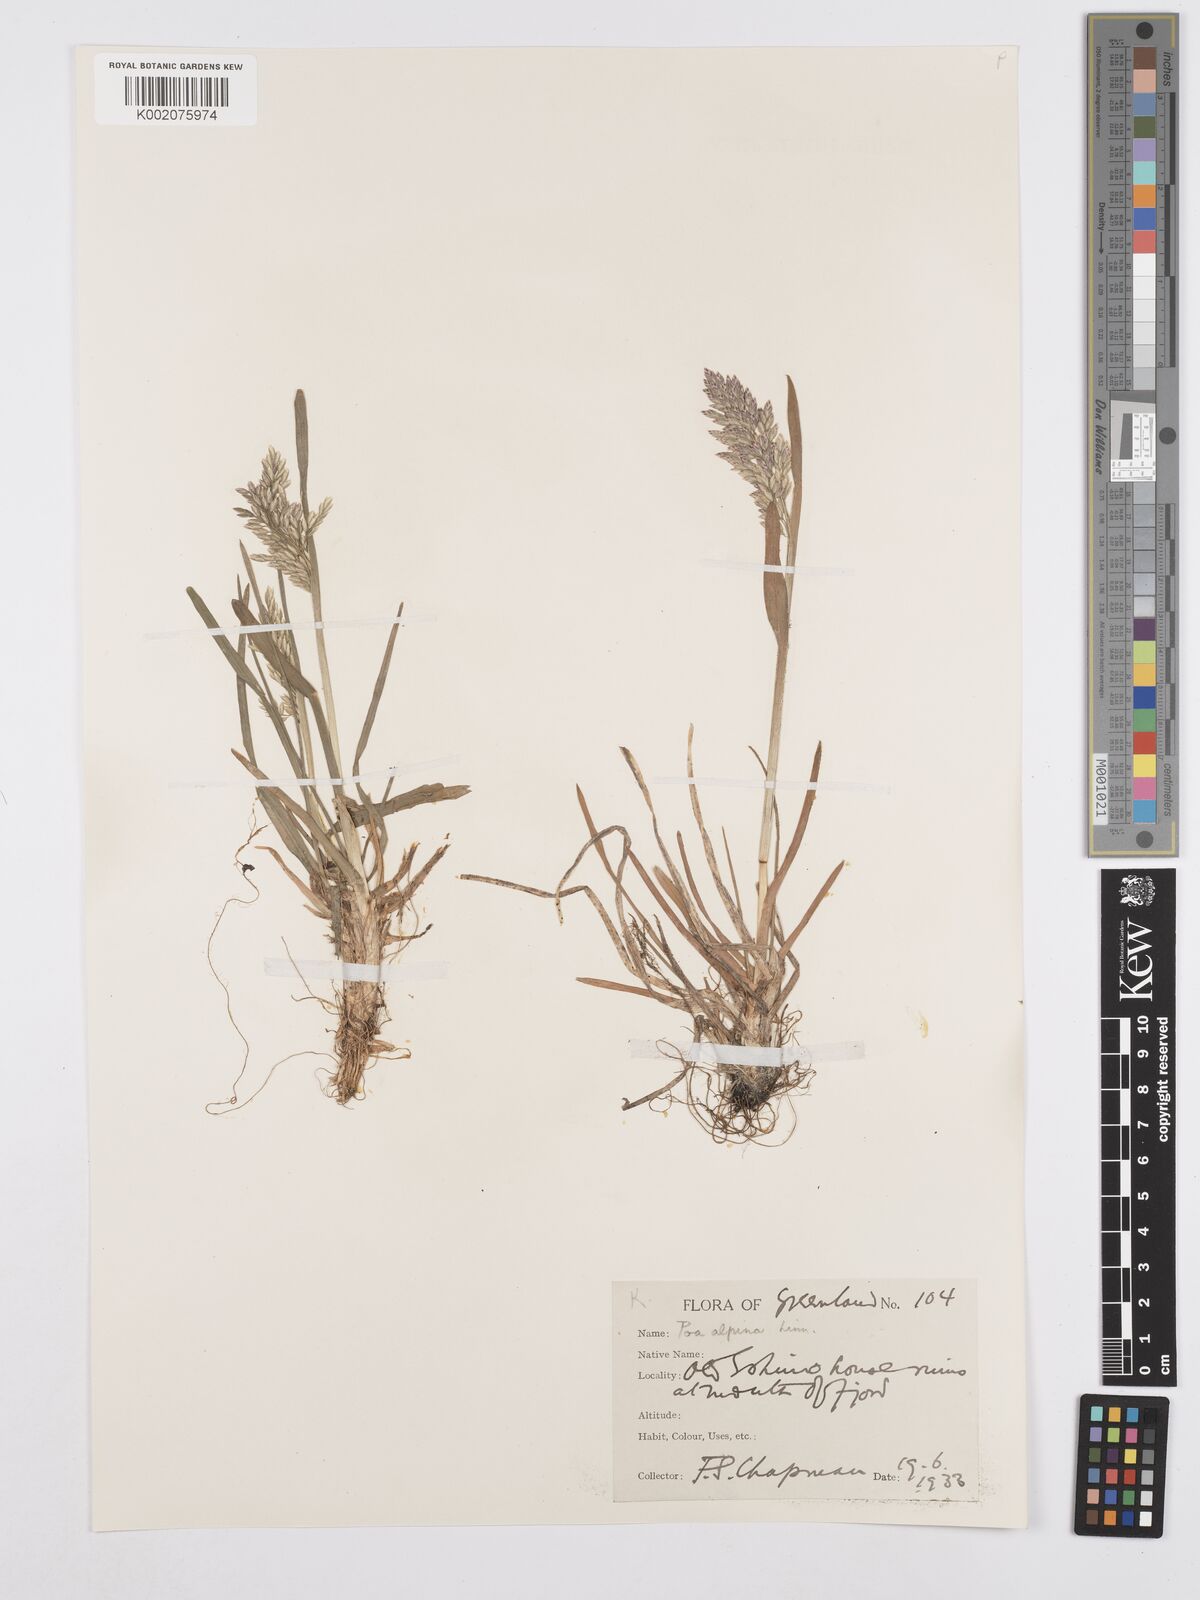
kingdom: Plantae
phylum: Tracheophyta
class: Liliopsida
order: Poales
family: Poaceae
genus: Poa
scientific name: Poa alpina
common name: Alpine bluegrass
